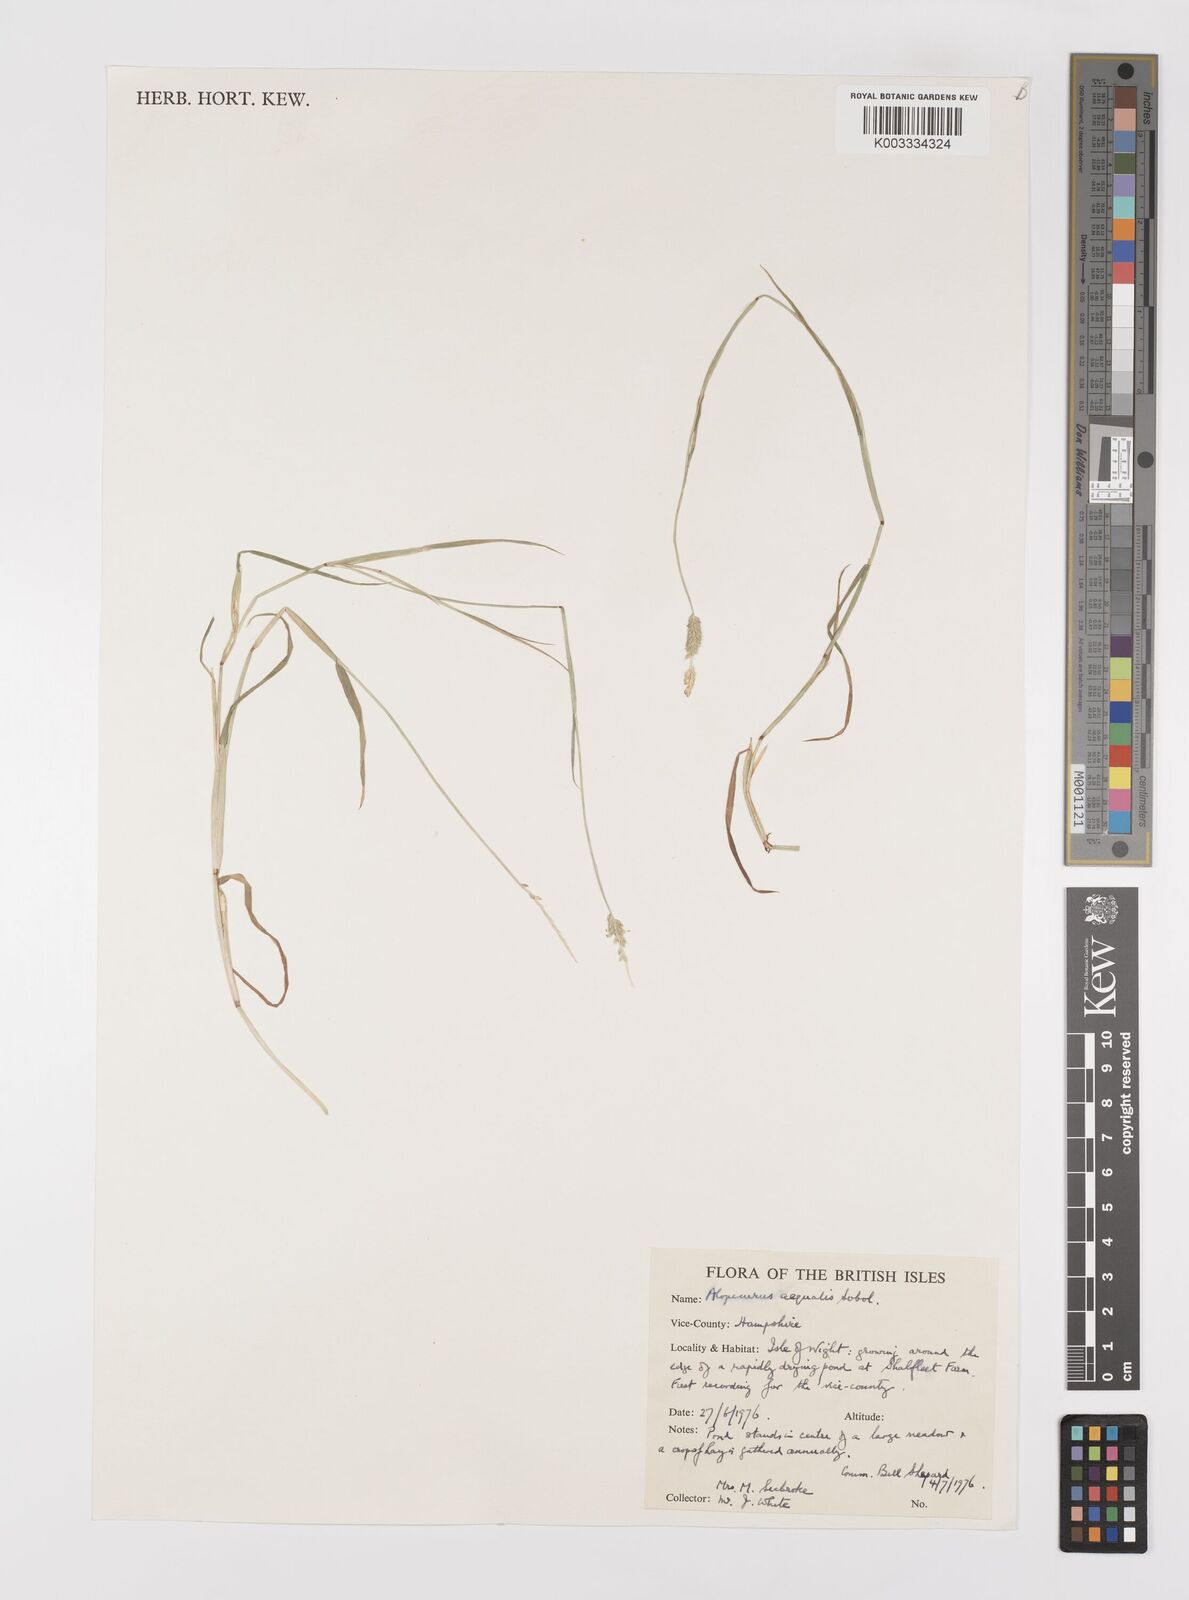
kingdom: Plantae
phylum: Tracheophyta
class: Liliopsida
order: Poales
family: Poaceae
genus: Alopecurus
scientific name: Alopecurus aequalis
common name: Orange foxtail
